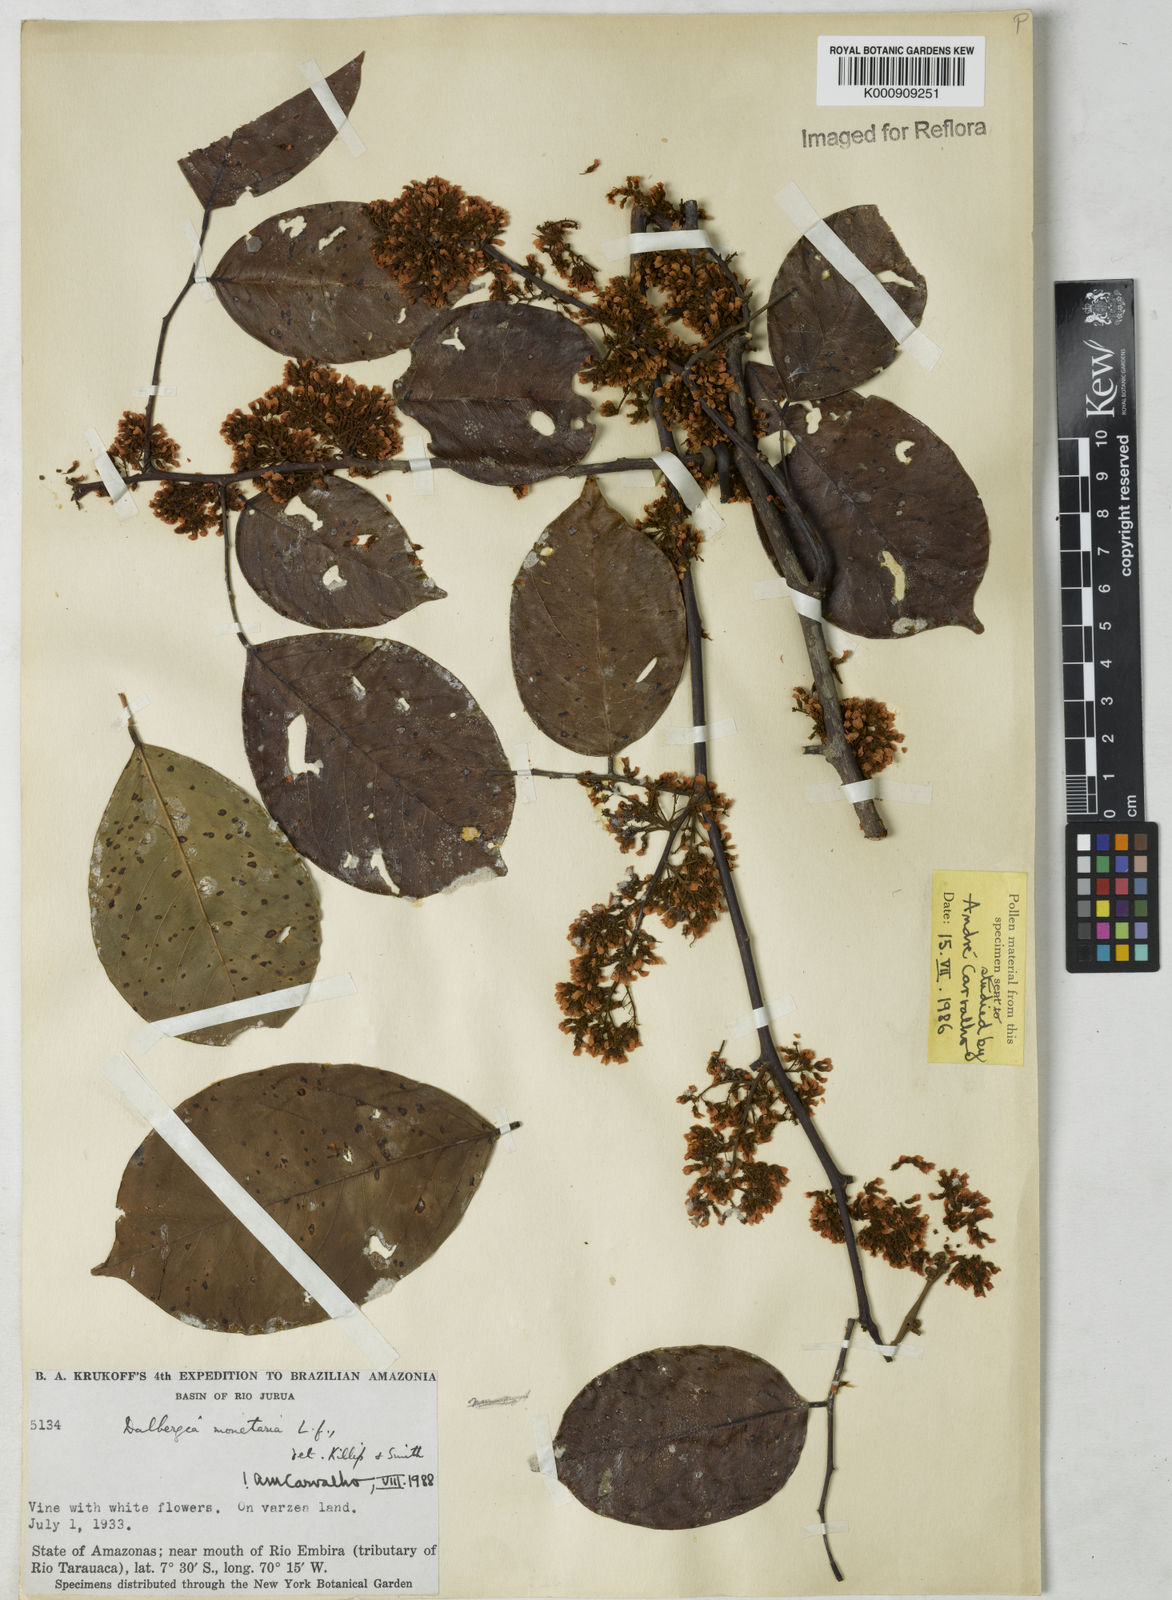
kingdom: Plantae
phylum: Tracheophyta
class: Magnoliopsida
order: Fabales
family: Fabaceae
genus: Dalbergia
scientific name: Dalbergia ovalis
